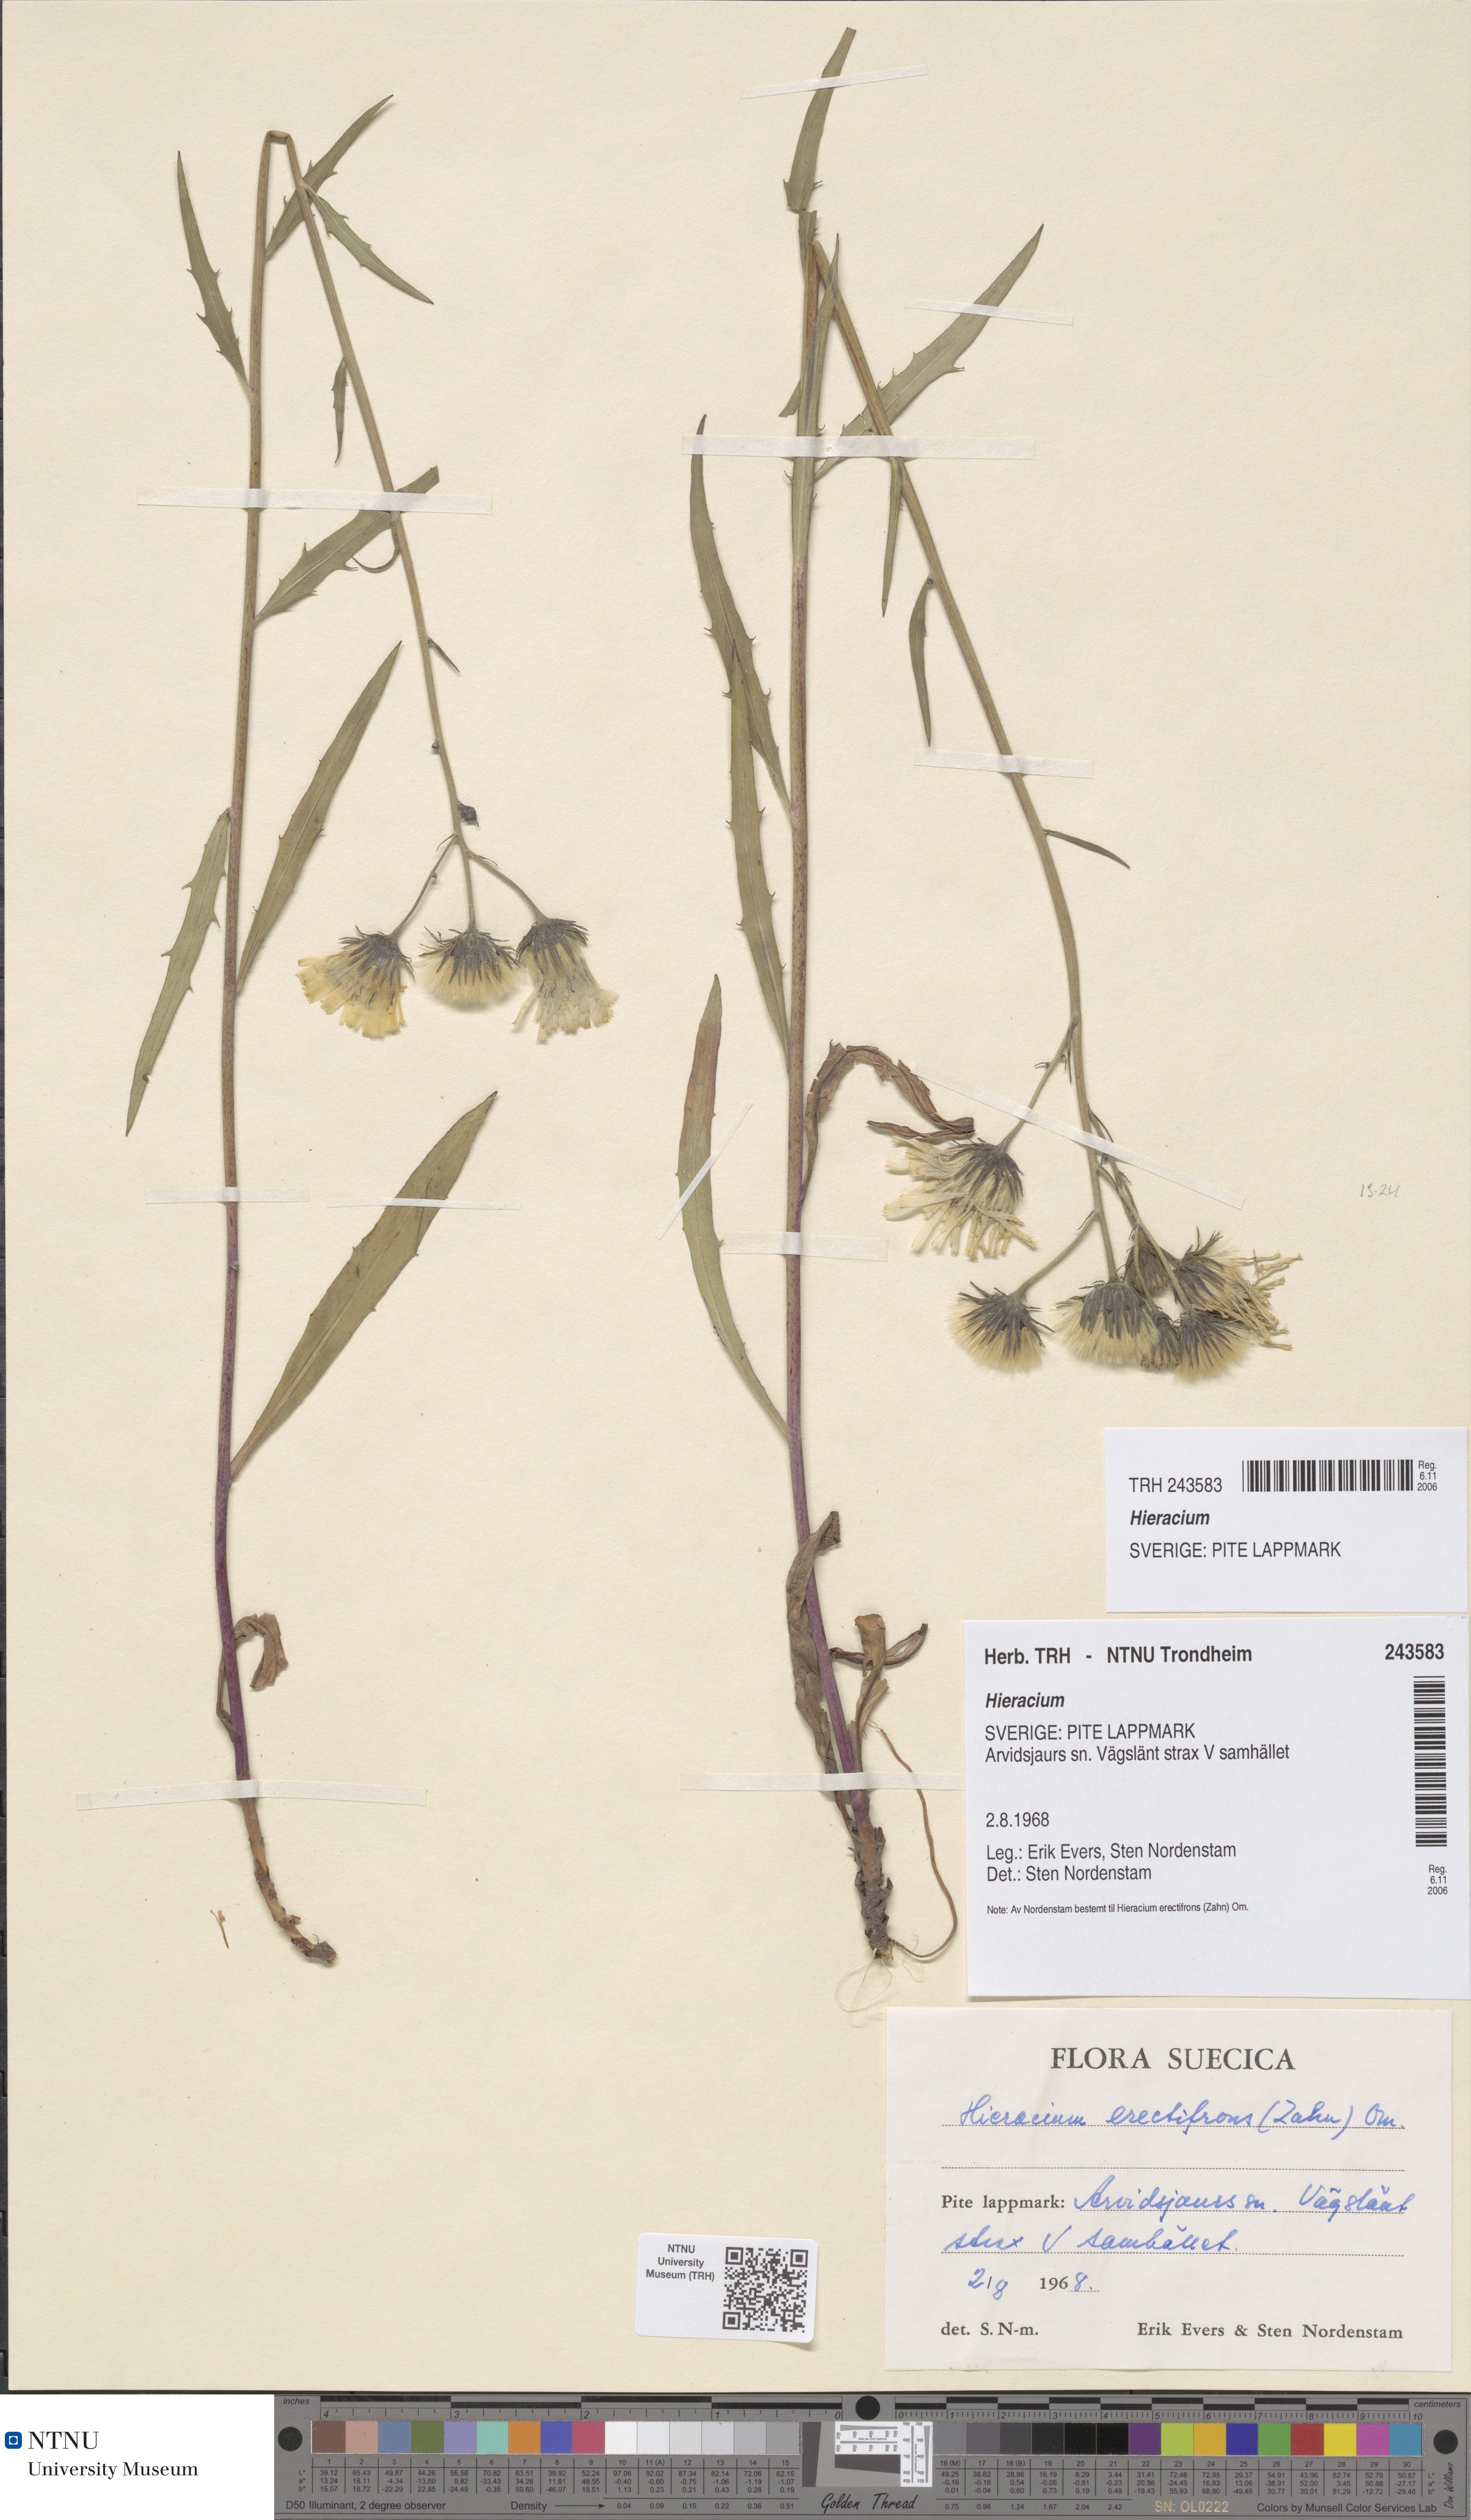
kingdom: Plantae
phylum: Tracheophyta
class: Magnoliopsida
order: Asterales
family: Asteraceae
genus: Hieracium
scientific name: Hieracium
